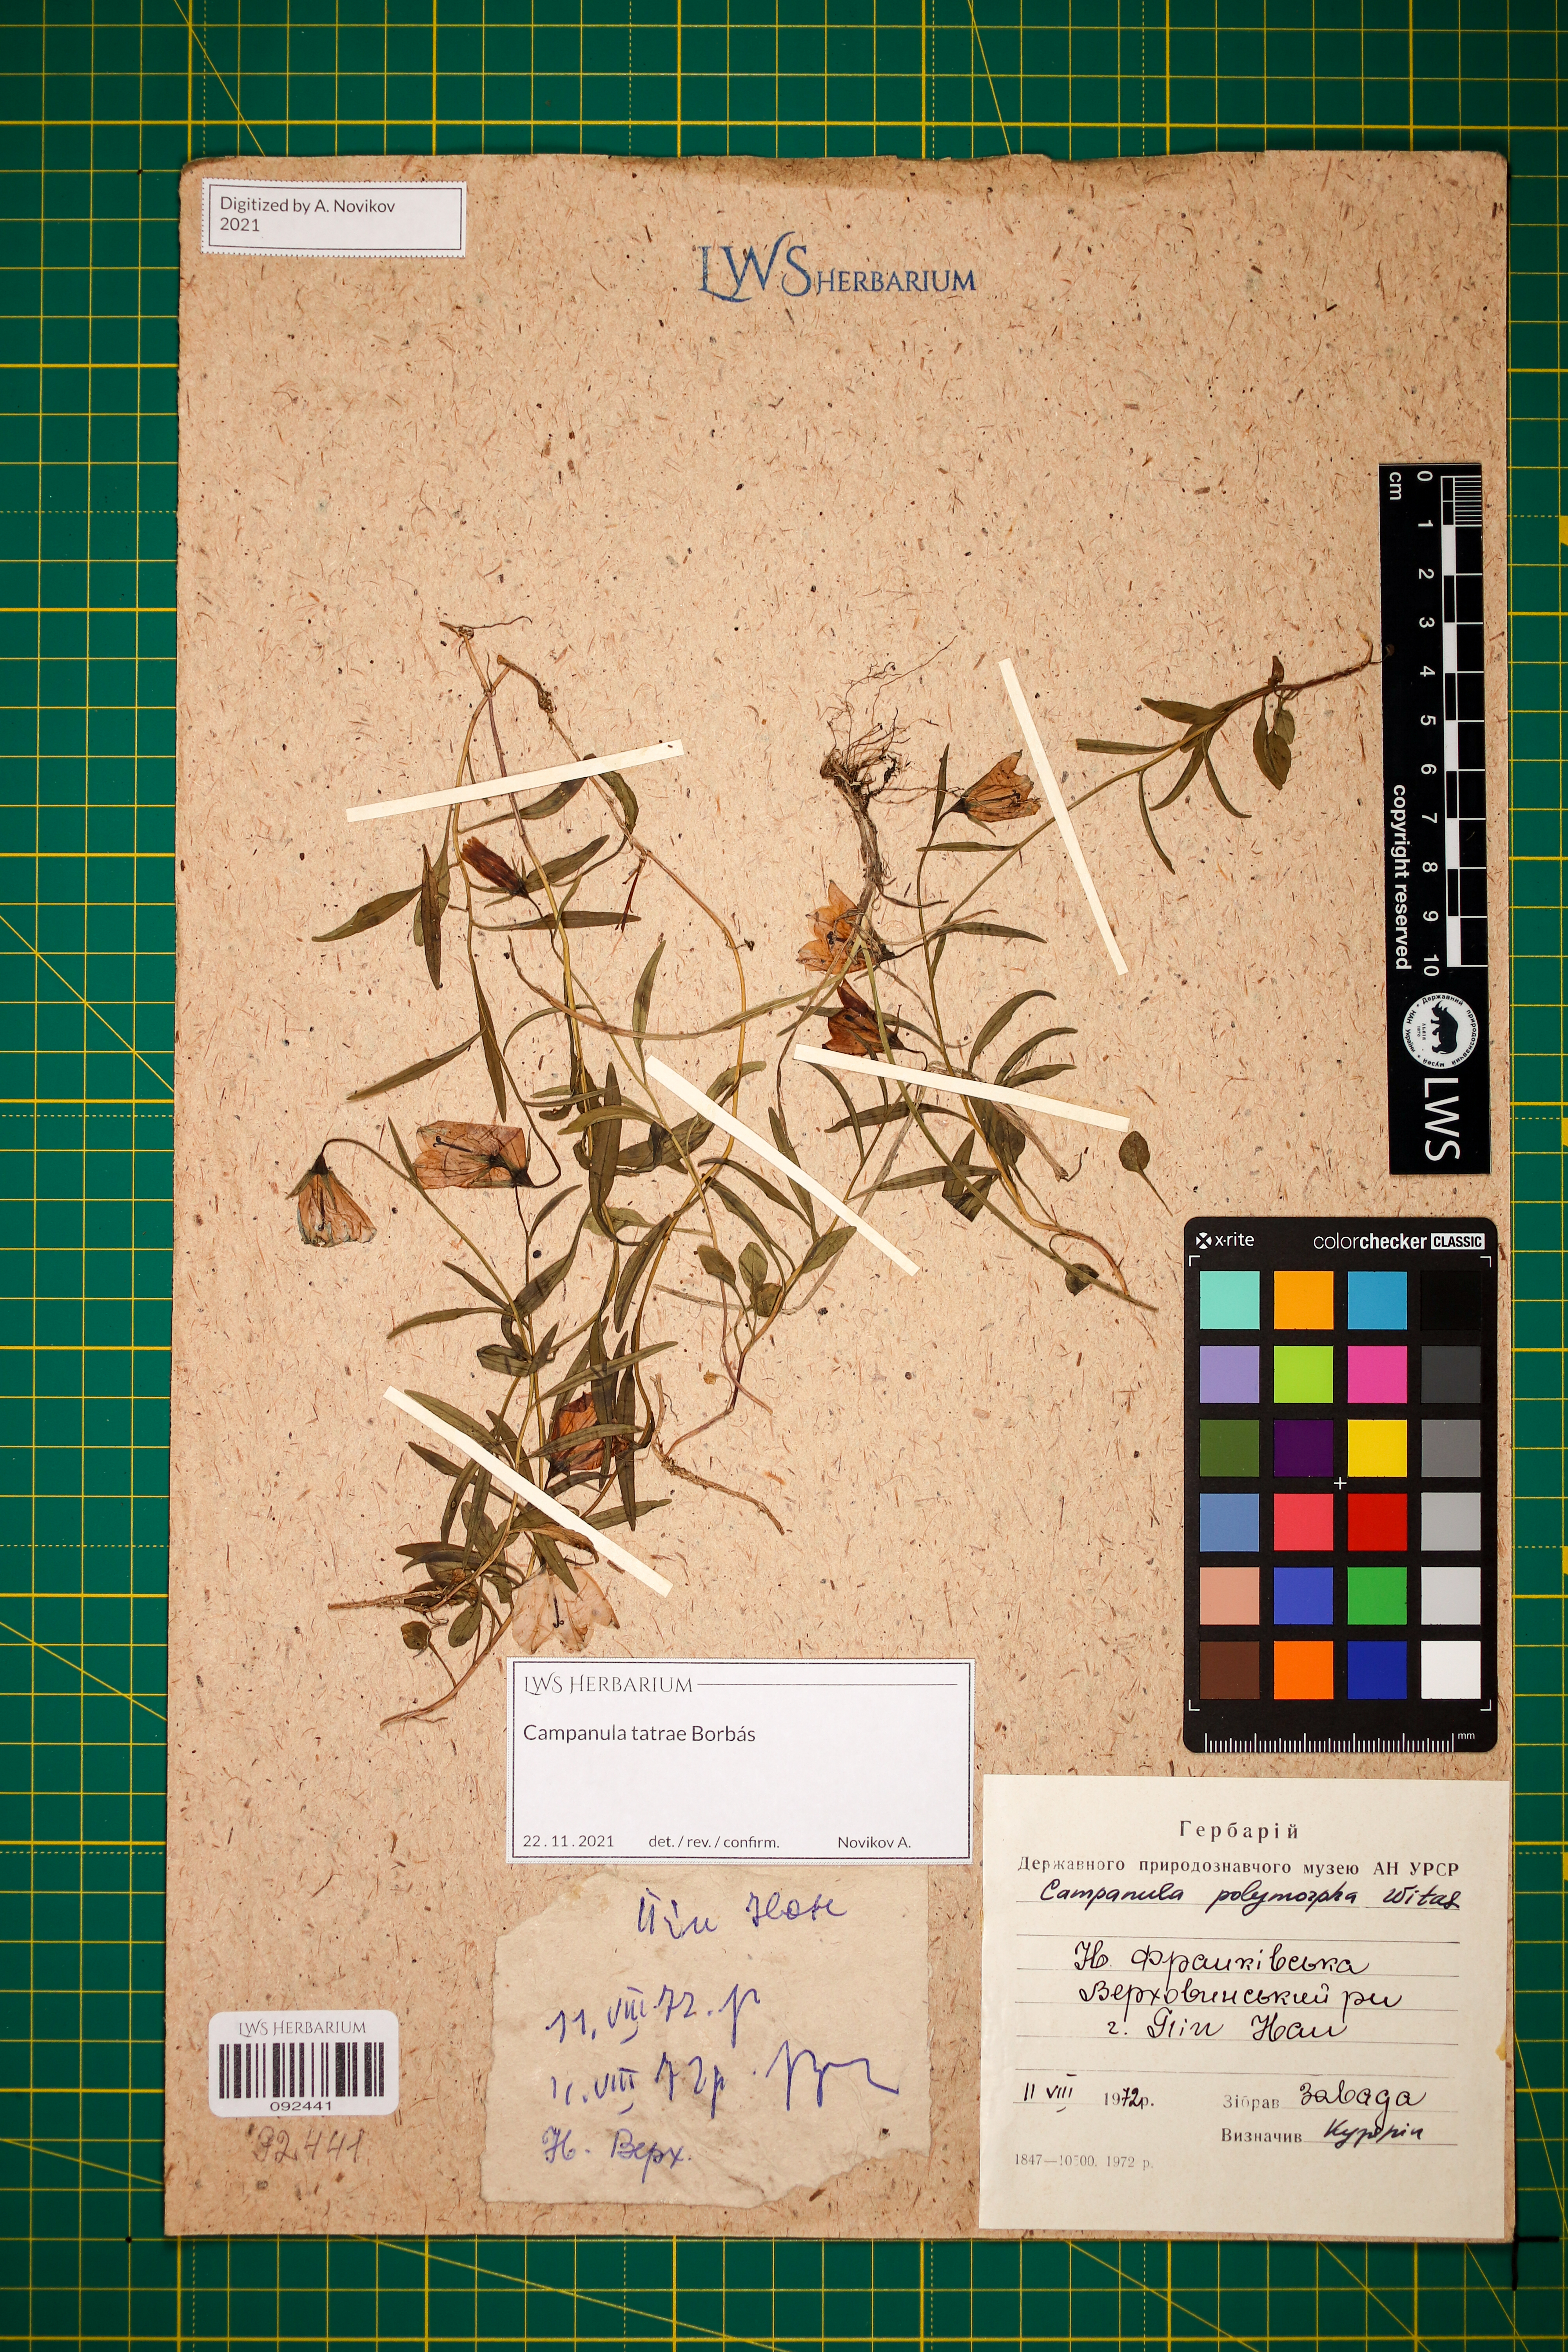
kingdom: Plantae
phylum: Tracheophyta
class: Magnoliopsida
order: Asterales
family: Campanulaceae
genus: Campanula
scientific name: Campanula tatrae
